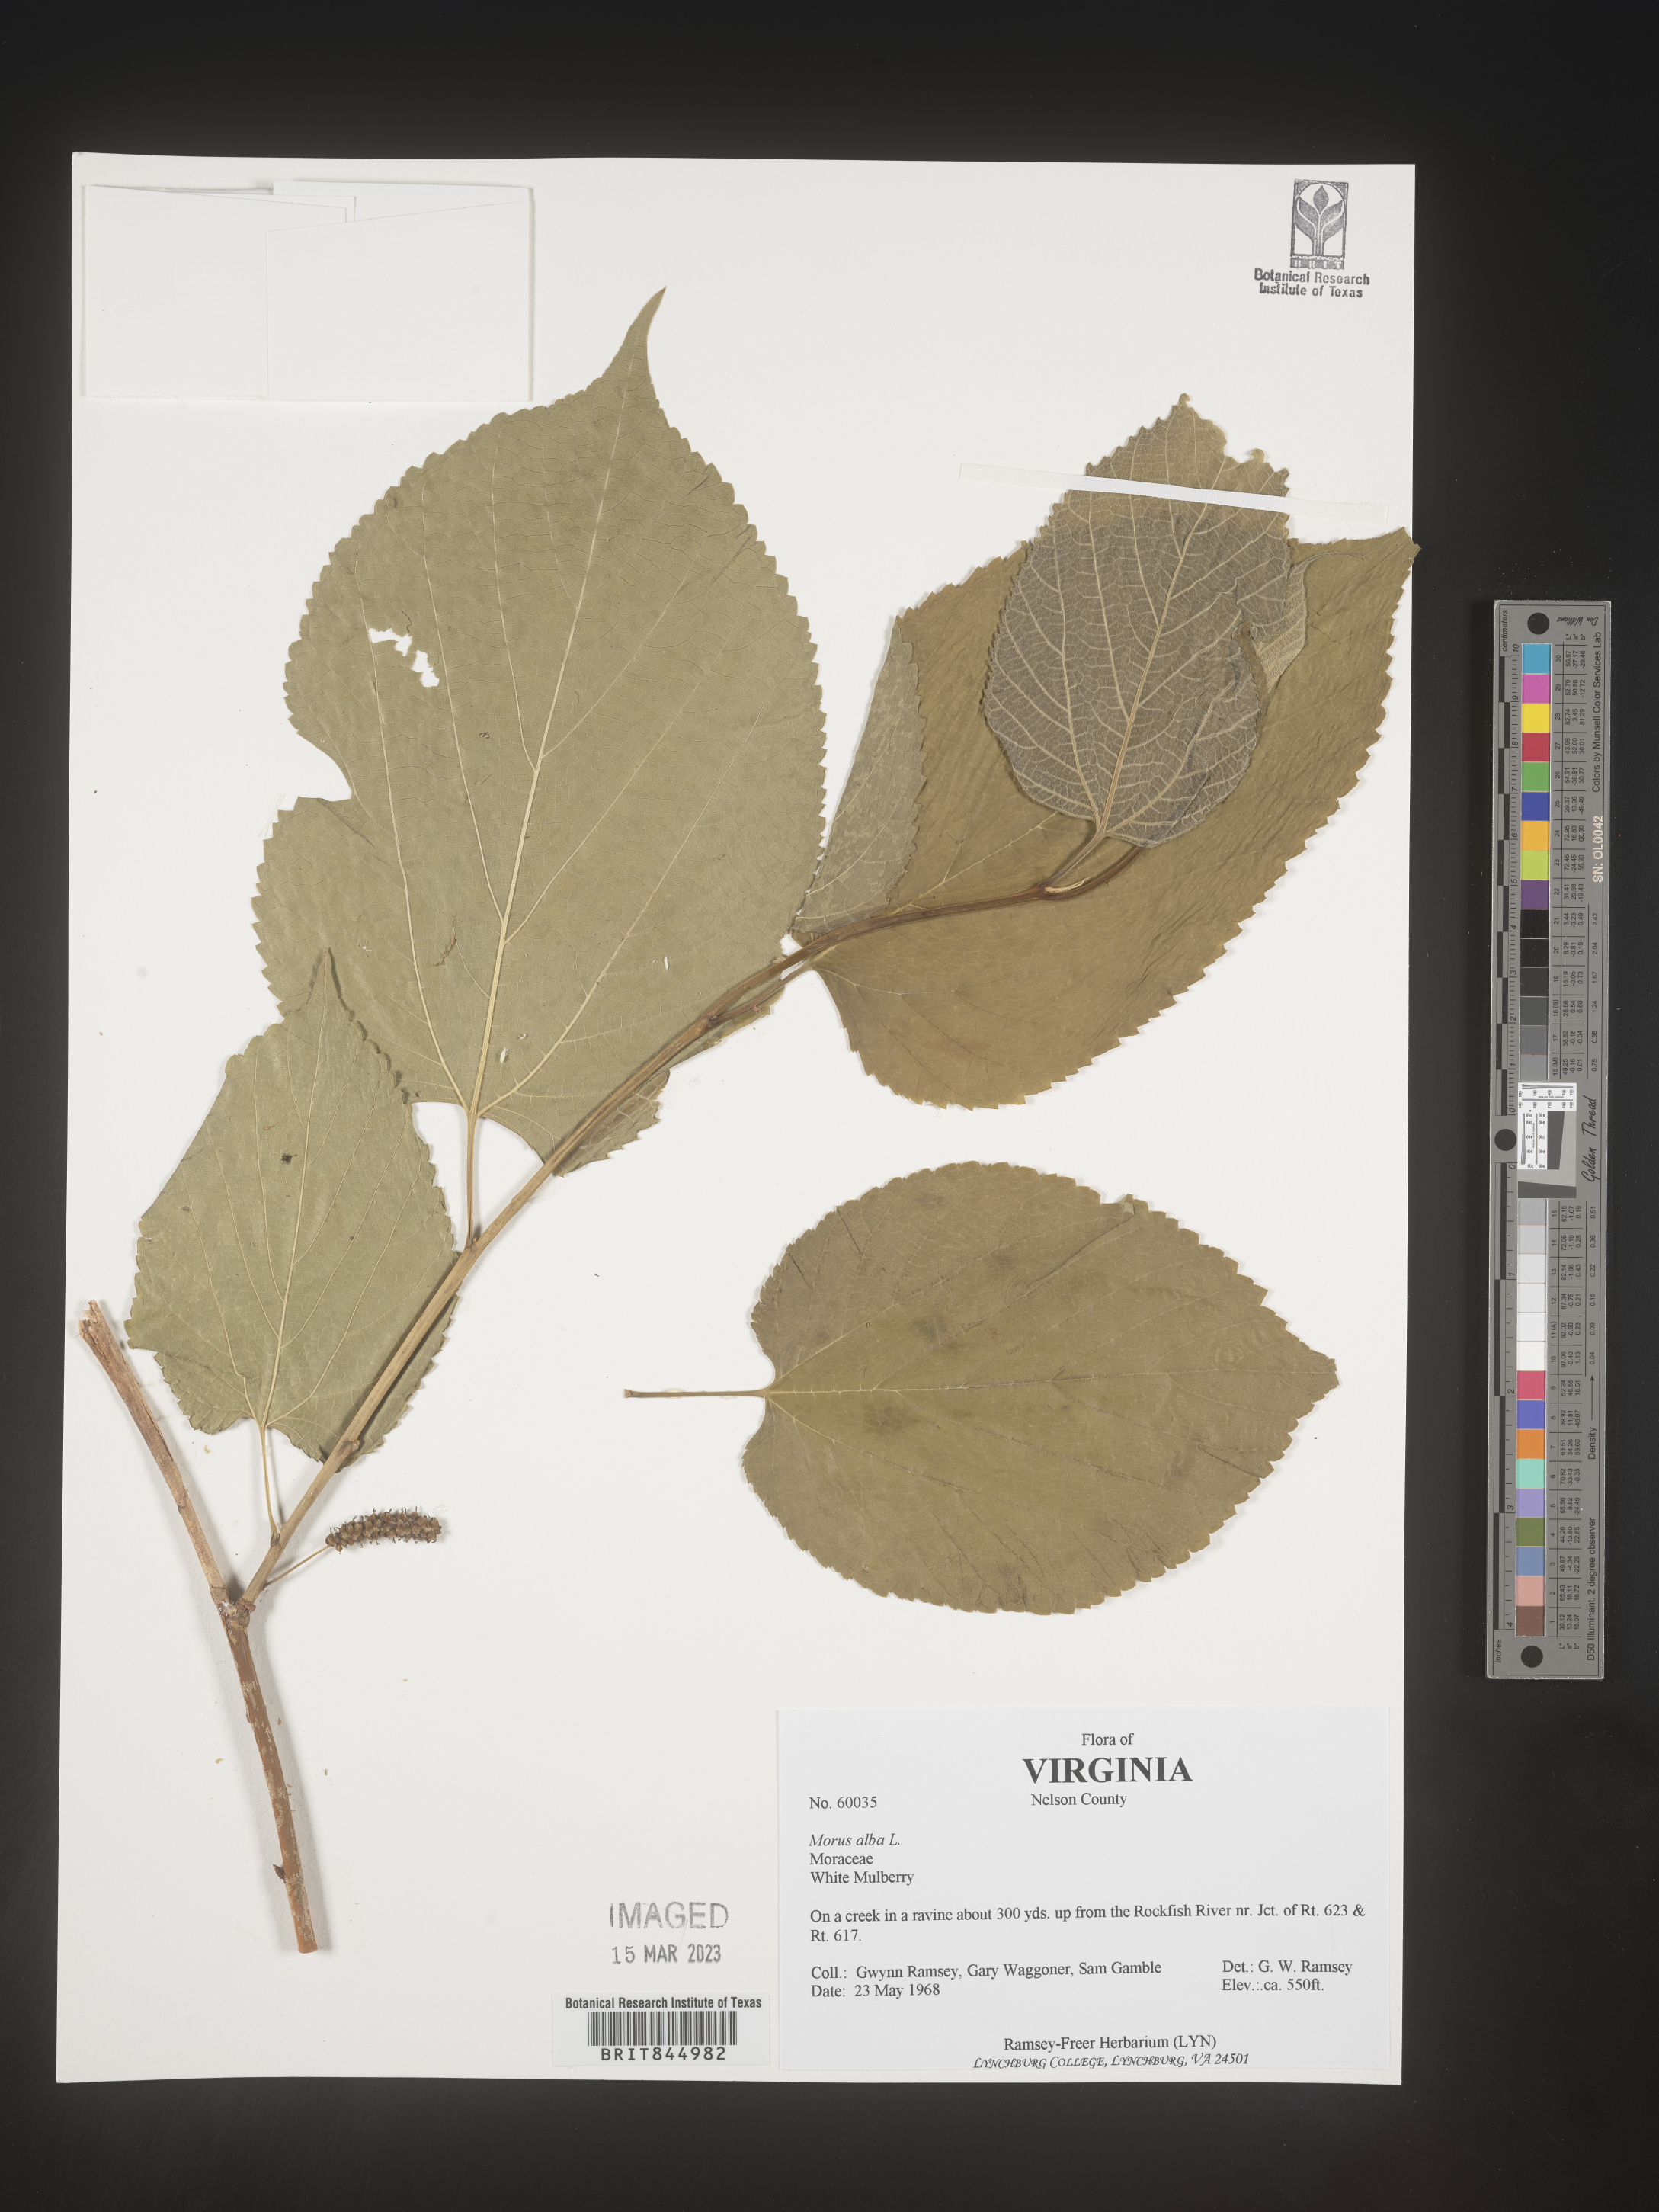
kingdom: Plantae
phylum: Tracheophyta
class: Magnoliopsida
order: Rosales
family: Moraceae
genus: Morus
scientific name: Morus alba
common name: White mulberry
